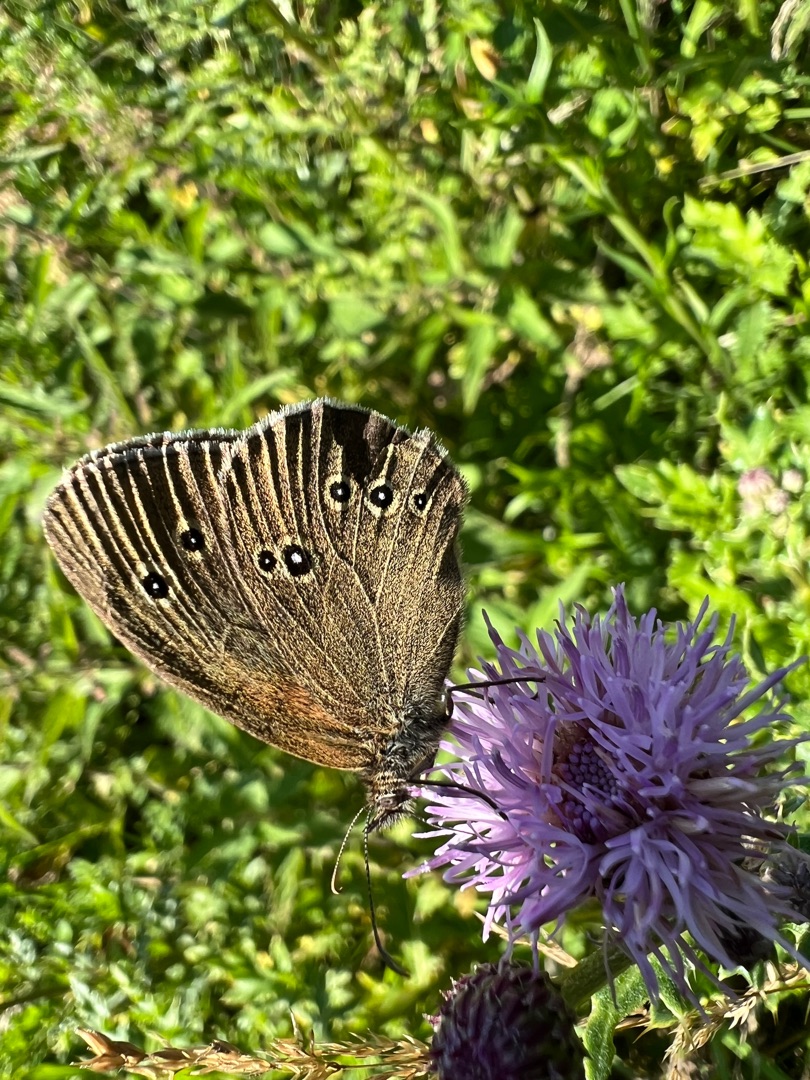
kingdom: Animalia
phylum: Arthropoda
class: Insecta
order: Lepidoptera
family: Nymphalidae
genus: Aphantopus
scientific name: Aphantopus hyperantus
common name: Engrandøje
